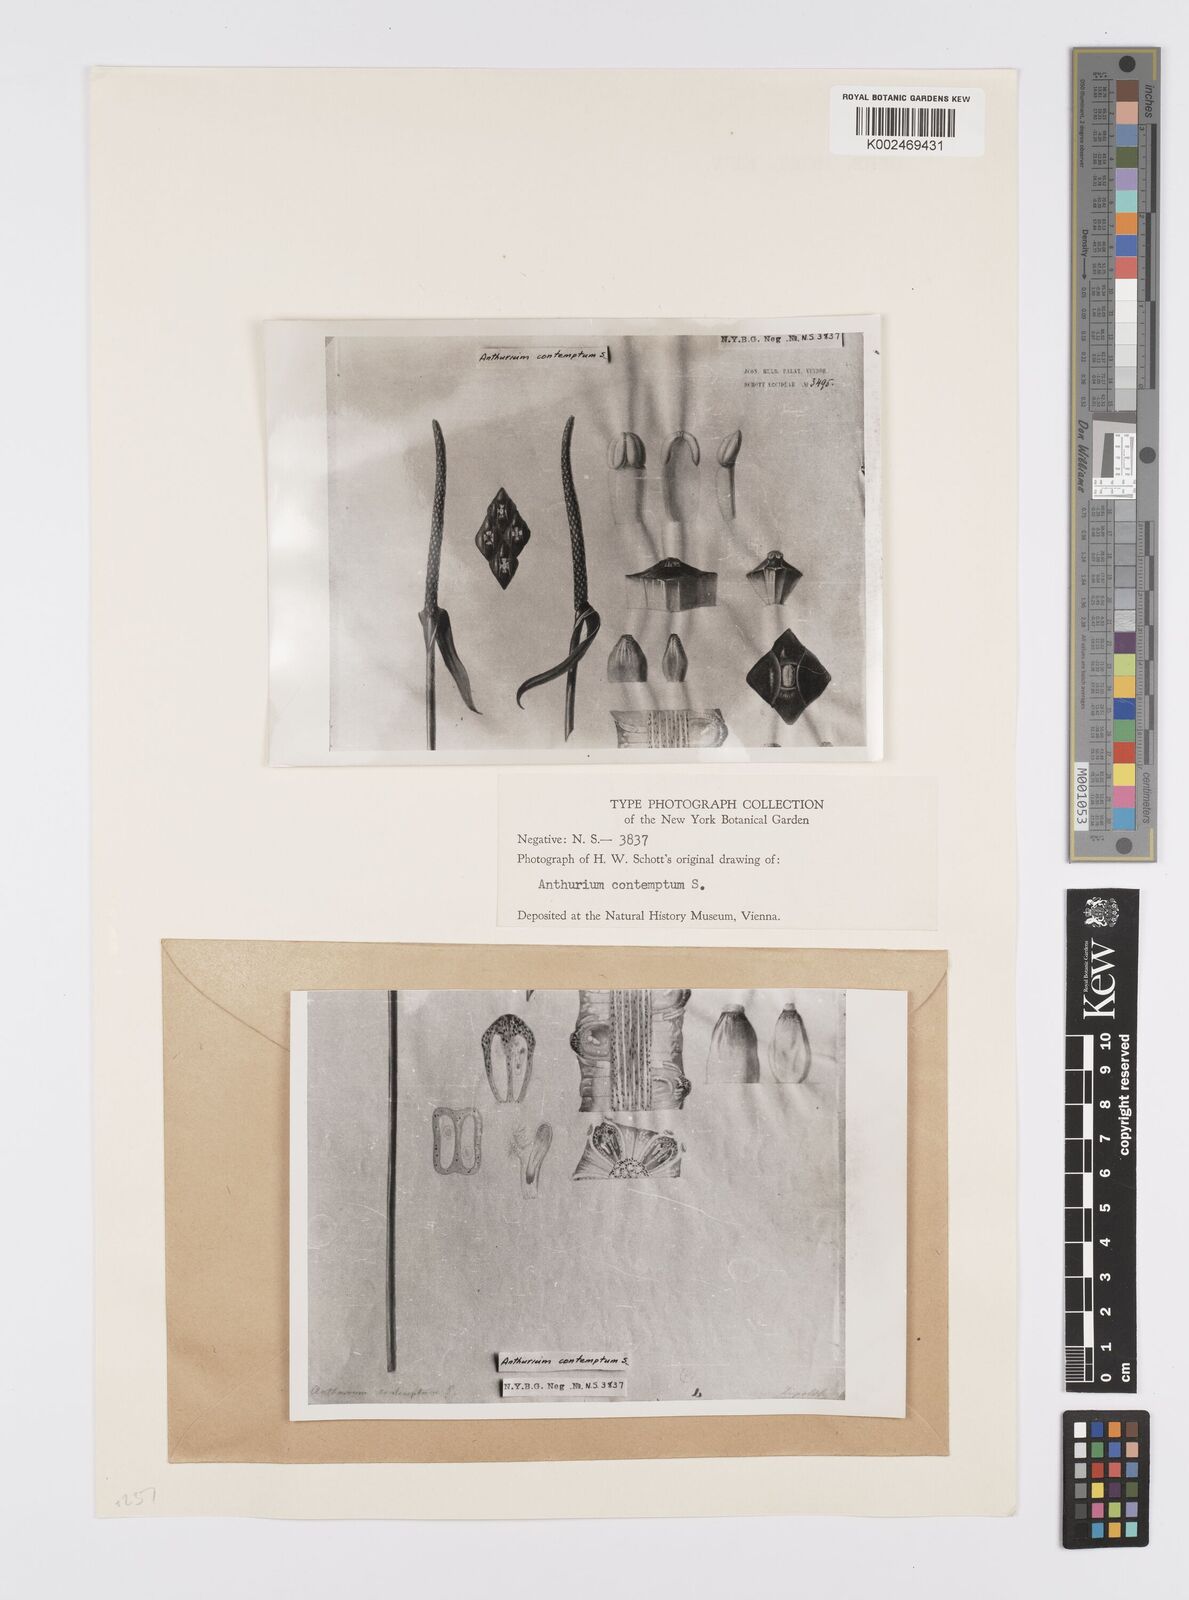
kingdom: Plantae
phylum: Tracheophyta
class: Liliopsida
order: Alismatales
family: Araceae
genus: Anthurium
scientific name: Anthurium harrisii
